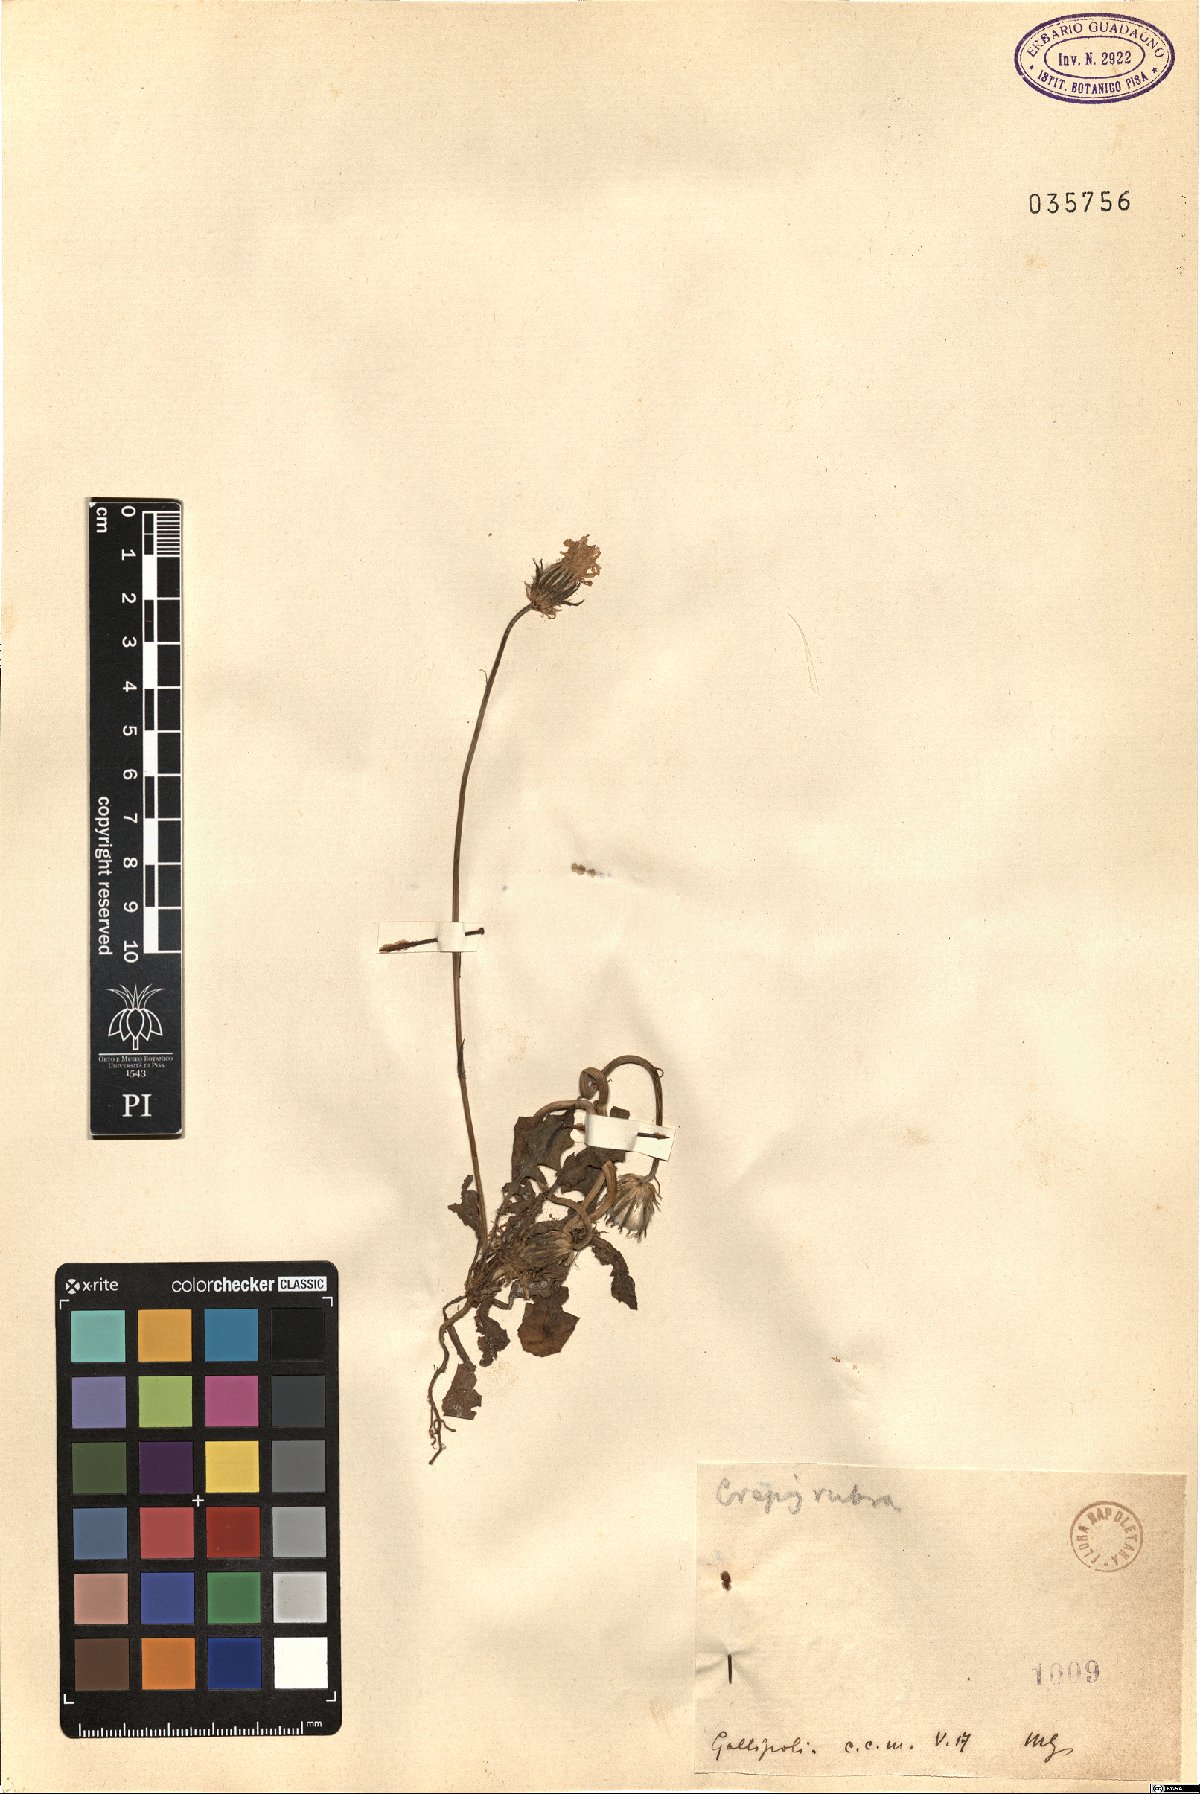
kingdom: Plantae
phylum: Tracheophyta
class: Magnoliopsida
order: Asterales
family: Asteraceae
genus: Crepis
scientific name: Crepis rubra
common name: Pink hawk's-beard
